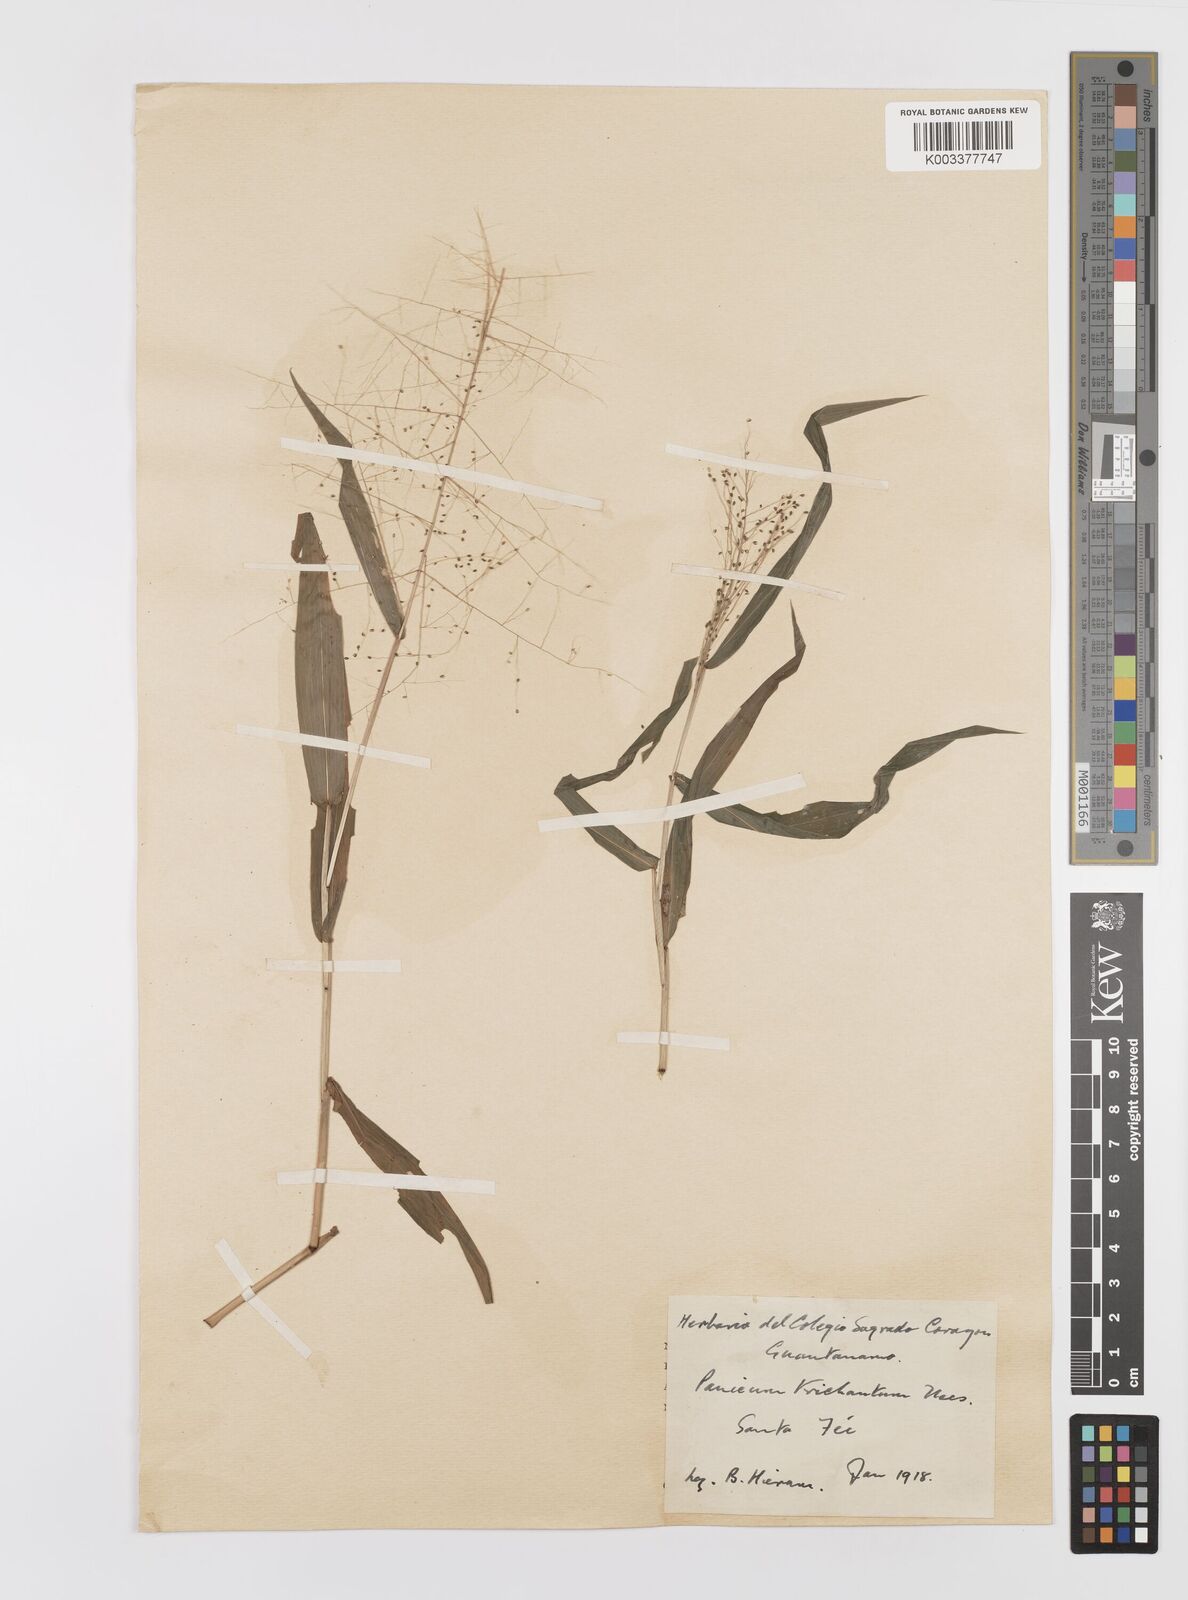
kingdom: Plantae
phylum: Tracheophyta
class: Liliopsida
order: Poales
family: Poaceae
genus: Panicum
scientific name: Panicum trichanthum
